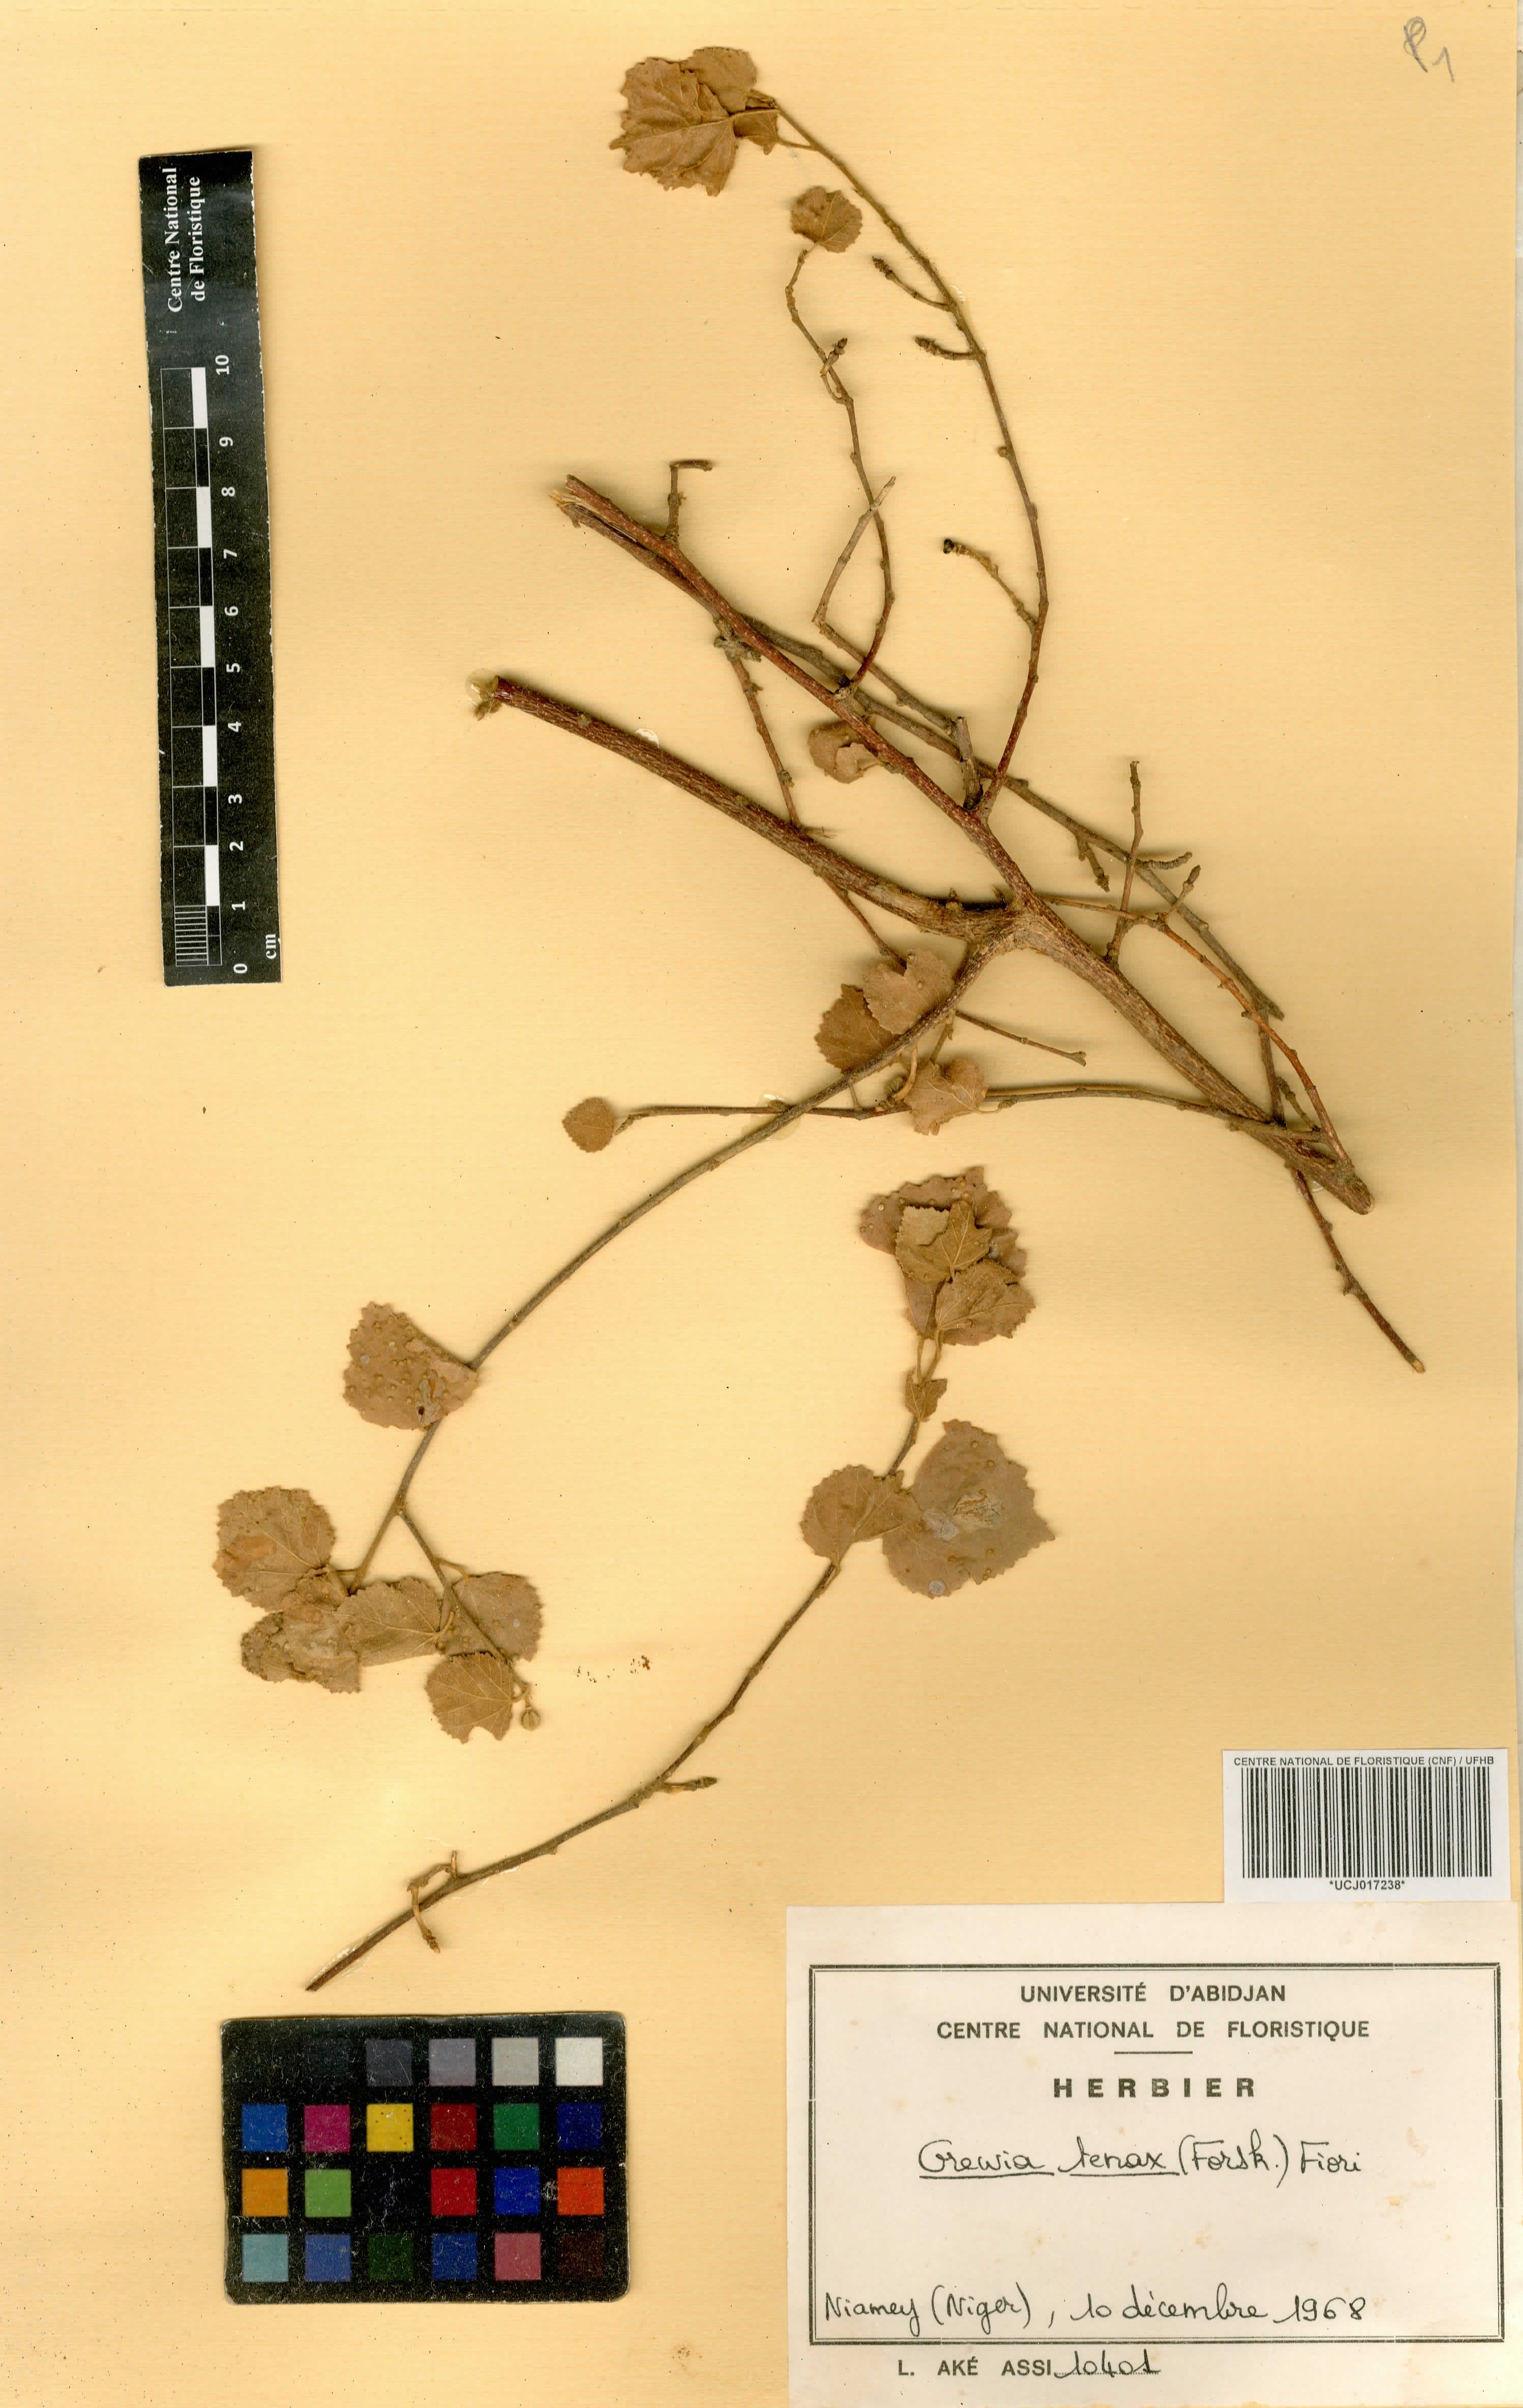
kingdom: Plantae
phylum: Tracheophyta
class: Magnoliopsida
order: Malvales
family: Malvaceae
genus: Grewia
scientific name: Grewia tenax
